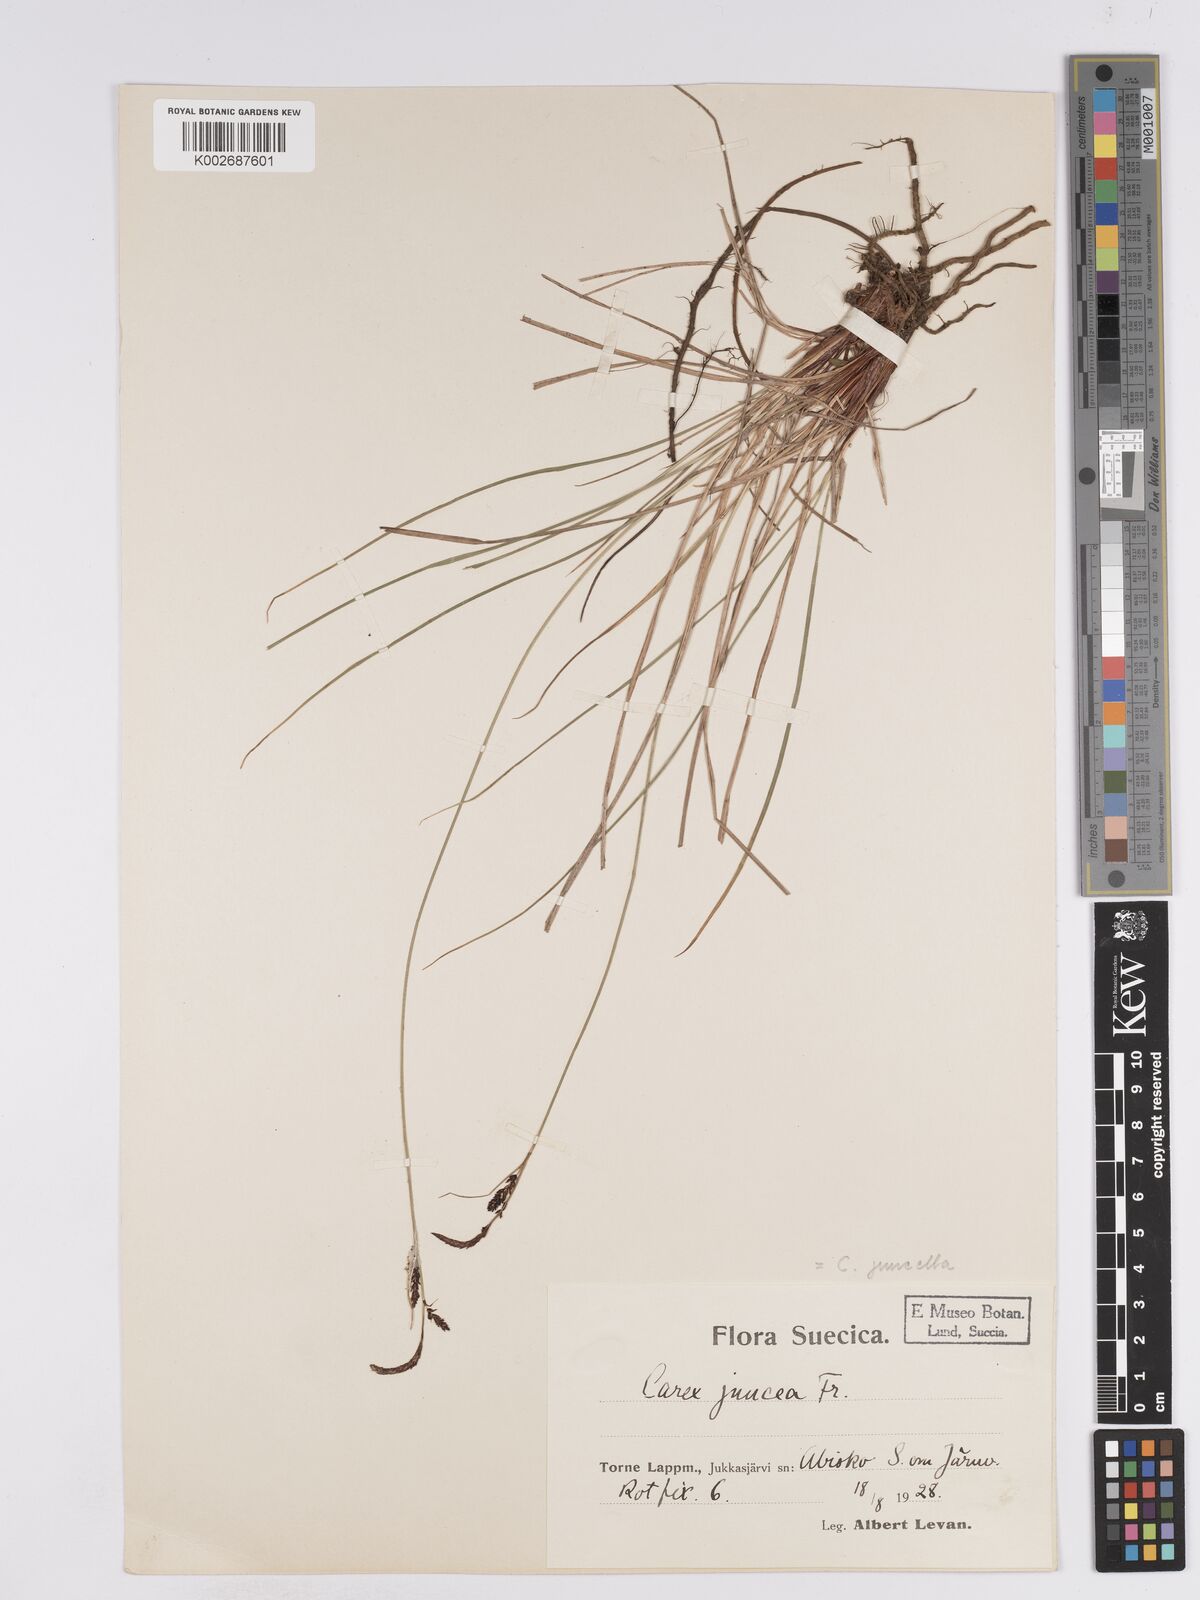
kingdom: Plantae
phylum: Tracheophyta
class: Liliopsida
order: Poales
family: Cyperaceae
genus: Carex
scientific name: Carex
